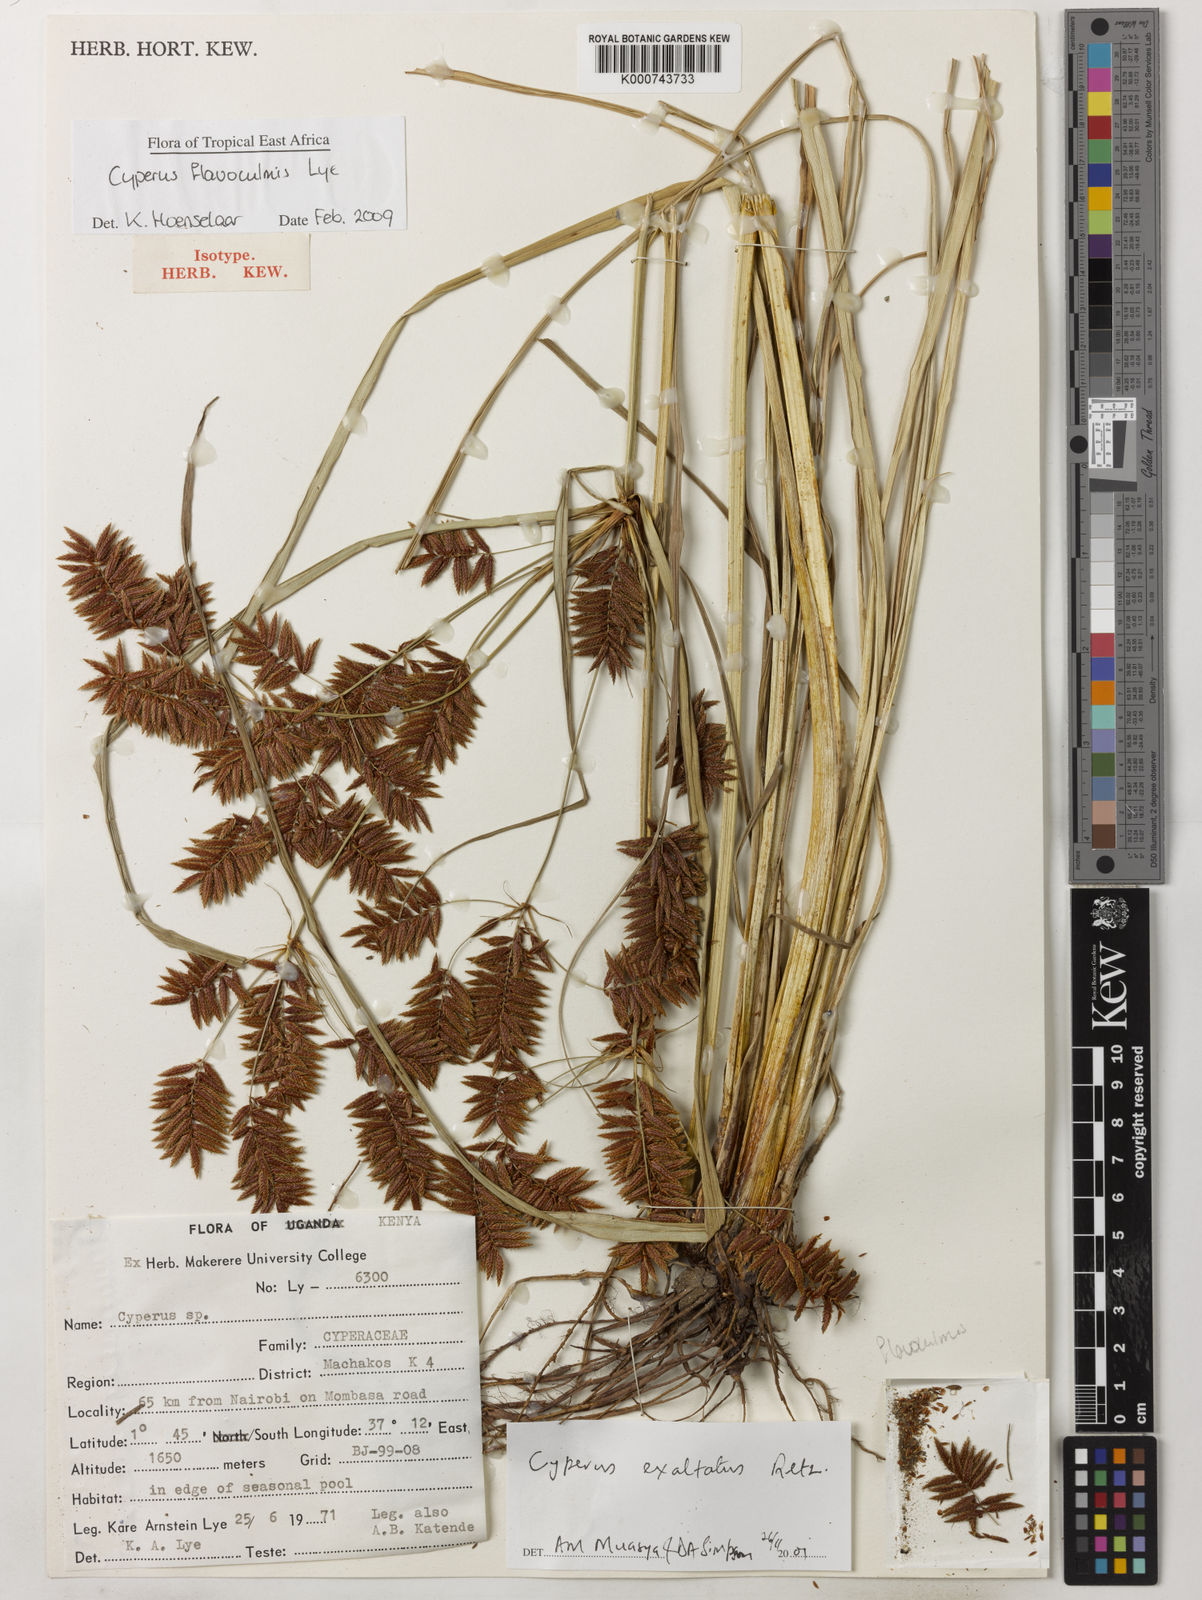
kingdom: Plantae
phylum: Tracheophyta
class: Liliopsida
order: Poales
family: Cyperaceae
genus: Cyperus
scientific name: Cyperus flavoculmis
